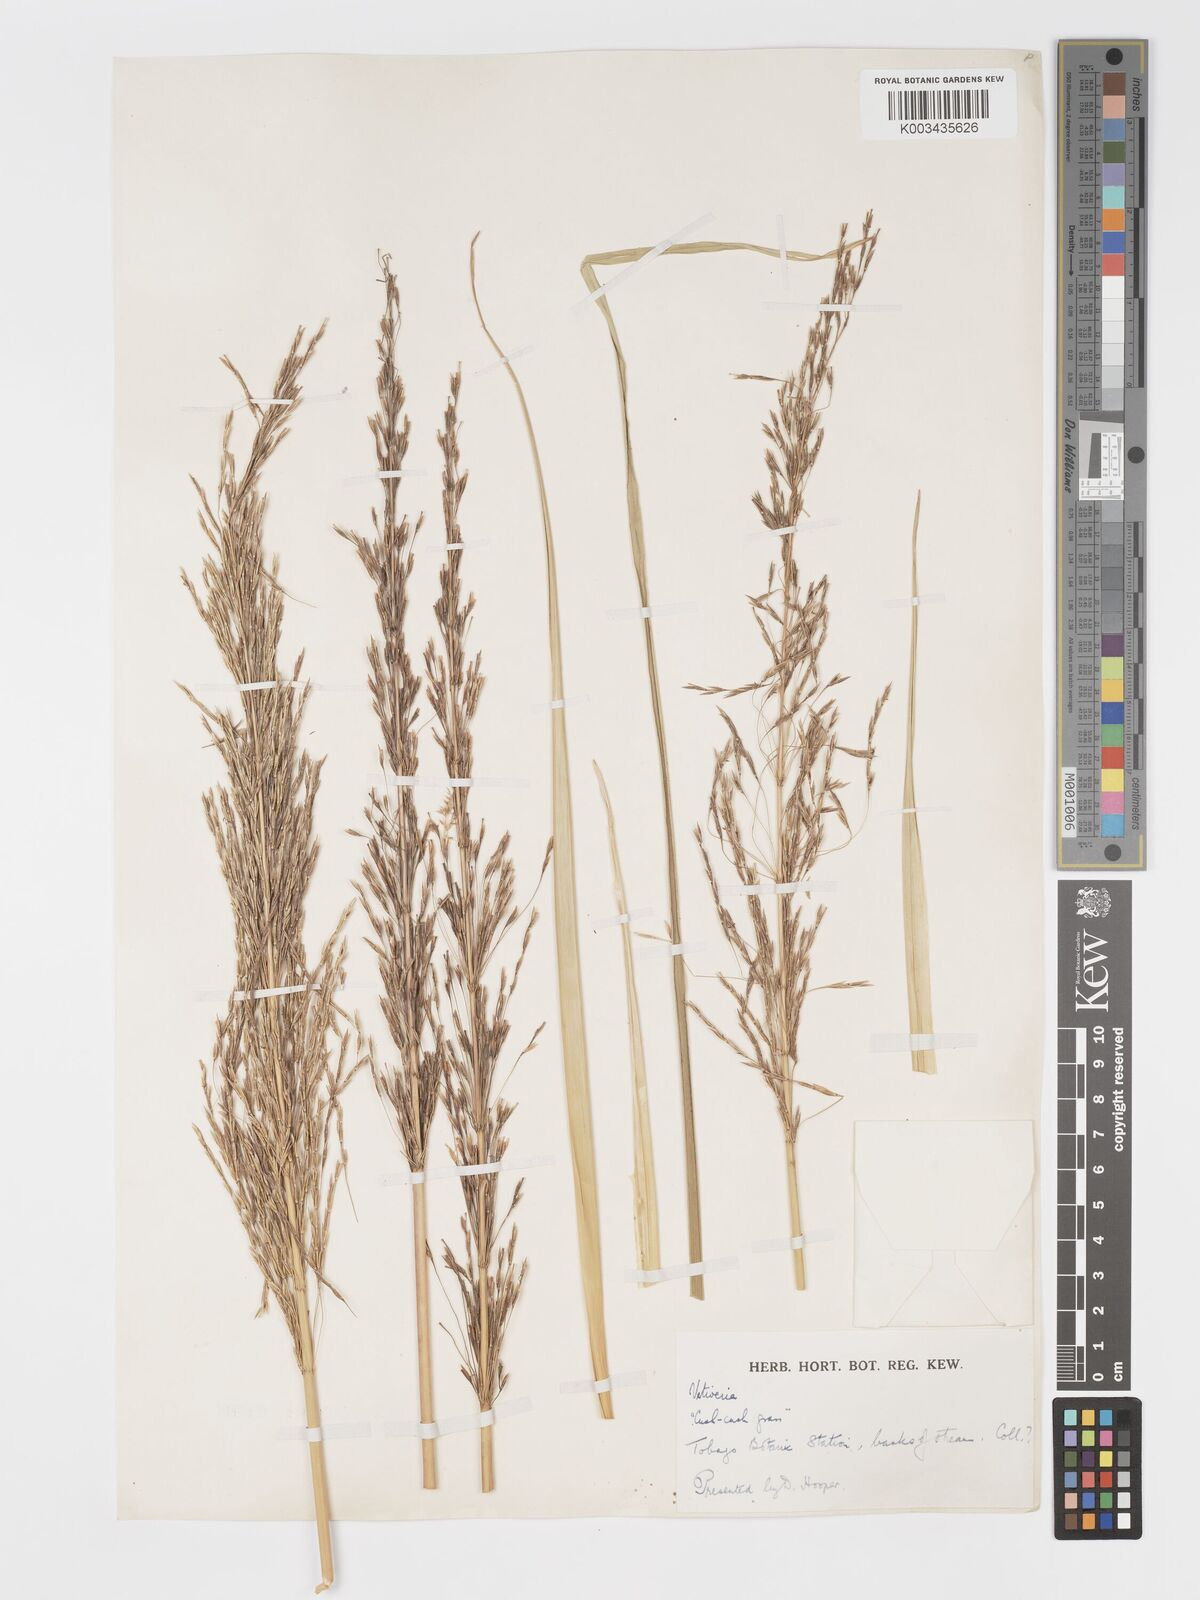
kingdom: Plantae
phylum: Tracheophyta
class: Liliopsida
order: Poales
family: Poaceae
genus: Chrysopogon
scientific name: Chrysopogon zizanioides
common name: False beardgrass
